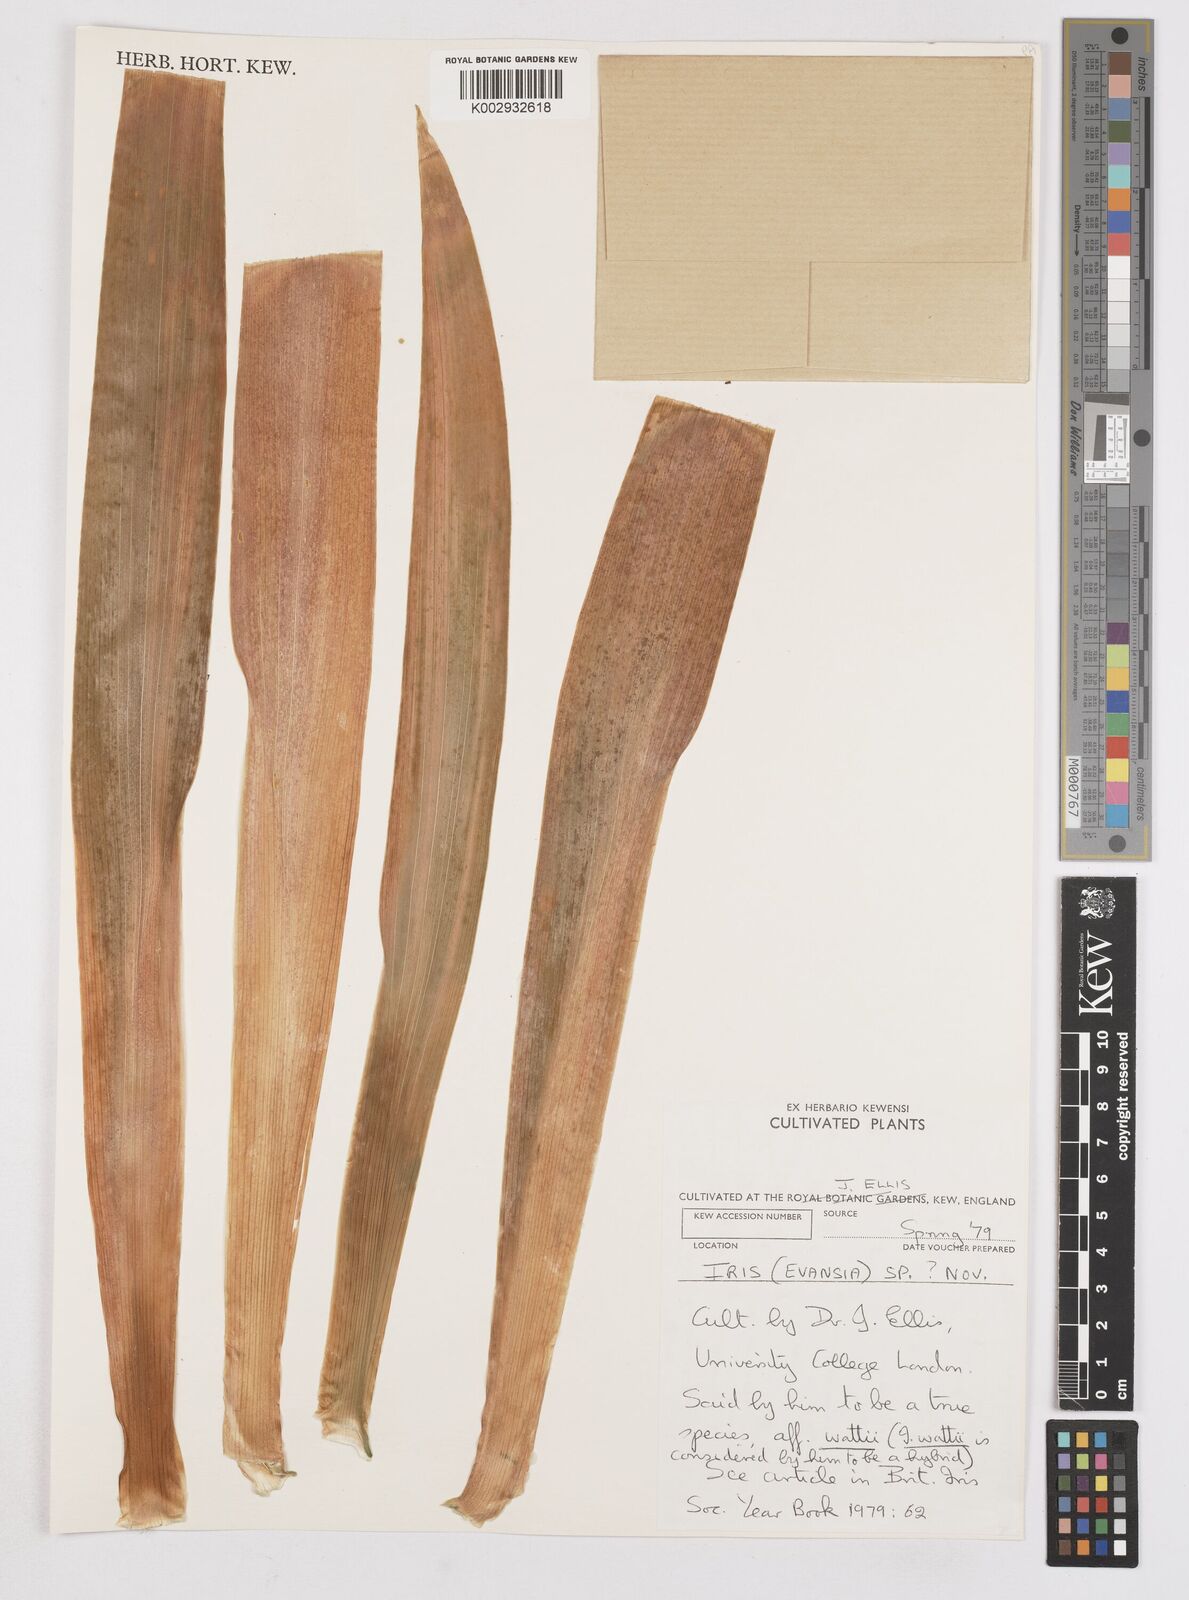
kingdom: Plantae
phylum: Tracheophyta
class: Liliopsida
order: Asparagales
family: Iridaceae
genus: Iris
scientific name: Iris
